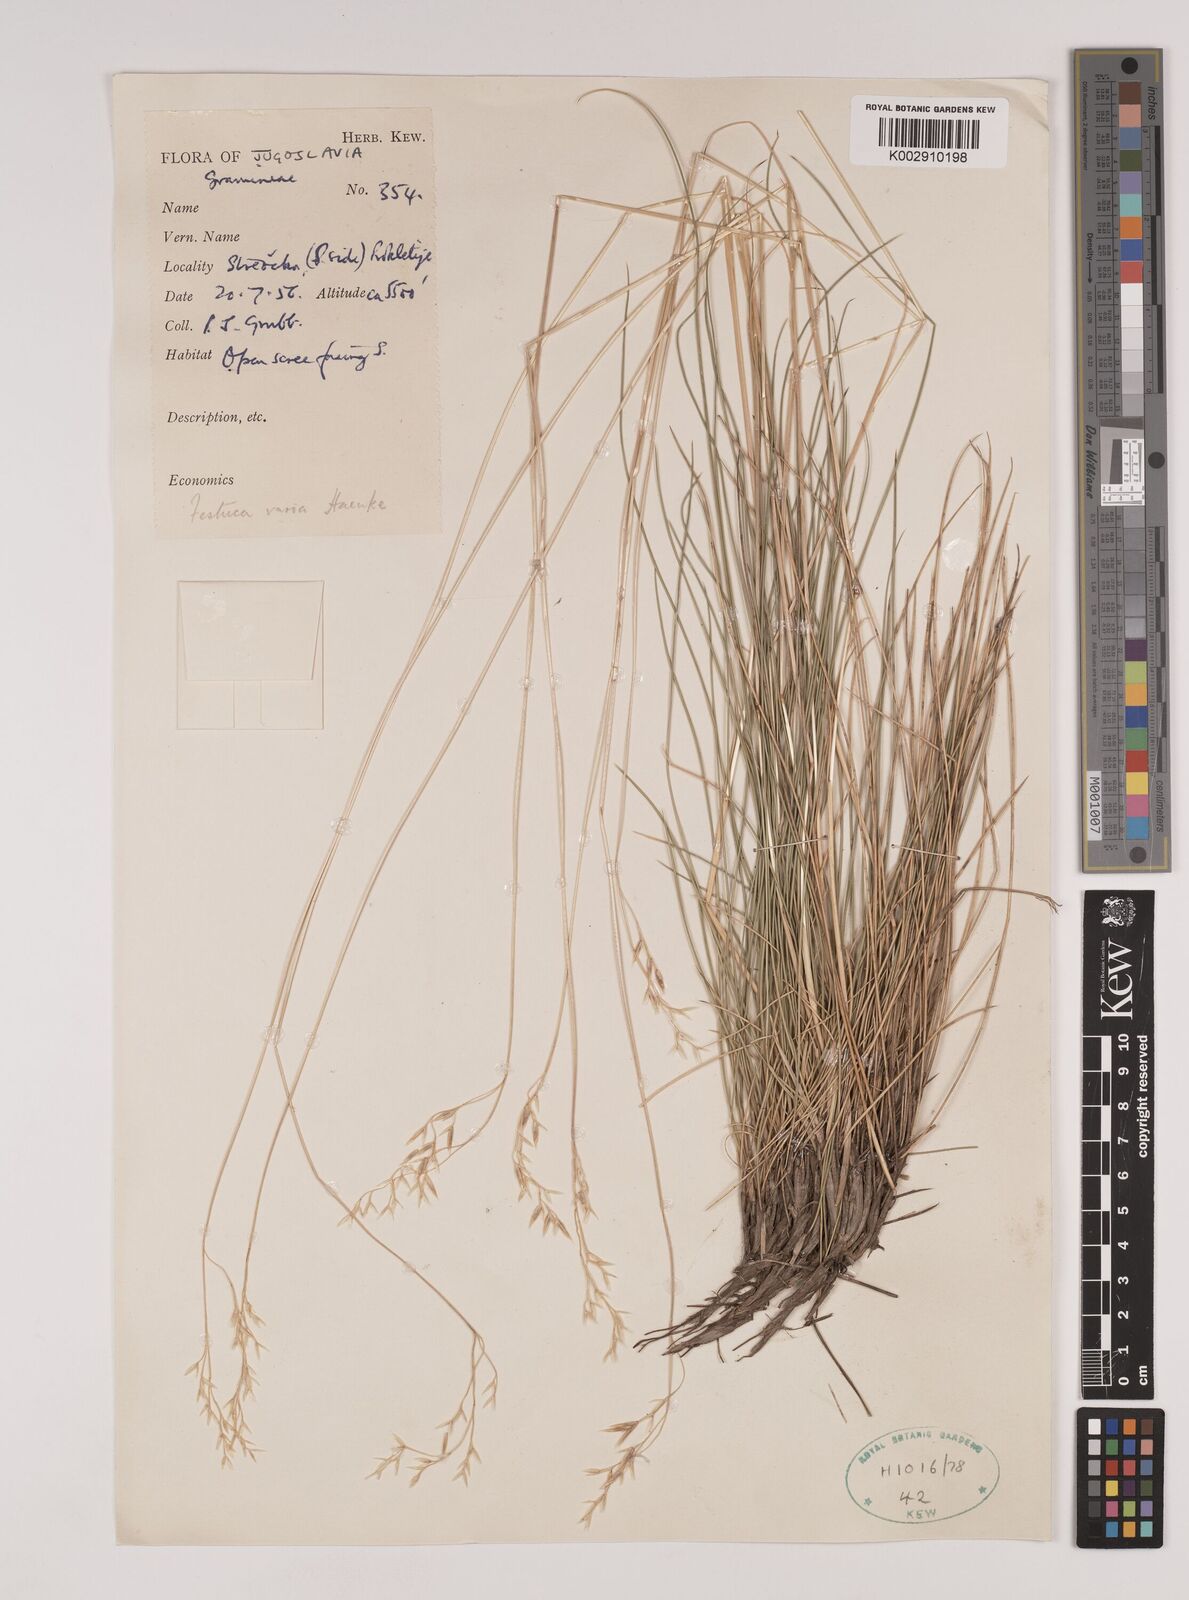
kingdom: Plantae
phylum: Tracheophyta
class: Liliopsida
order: Poales
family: Poaceae
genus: Festuca
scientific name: Festuca varia
